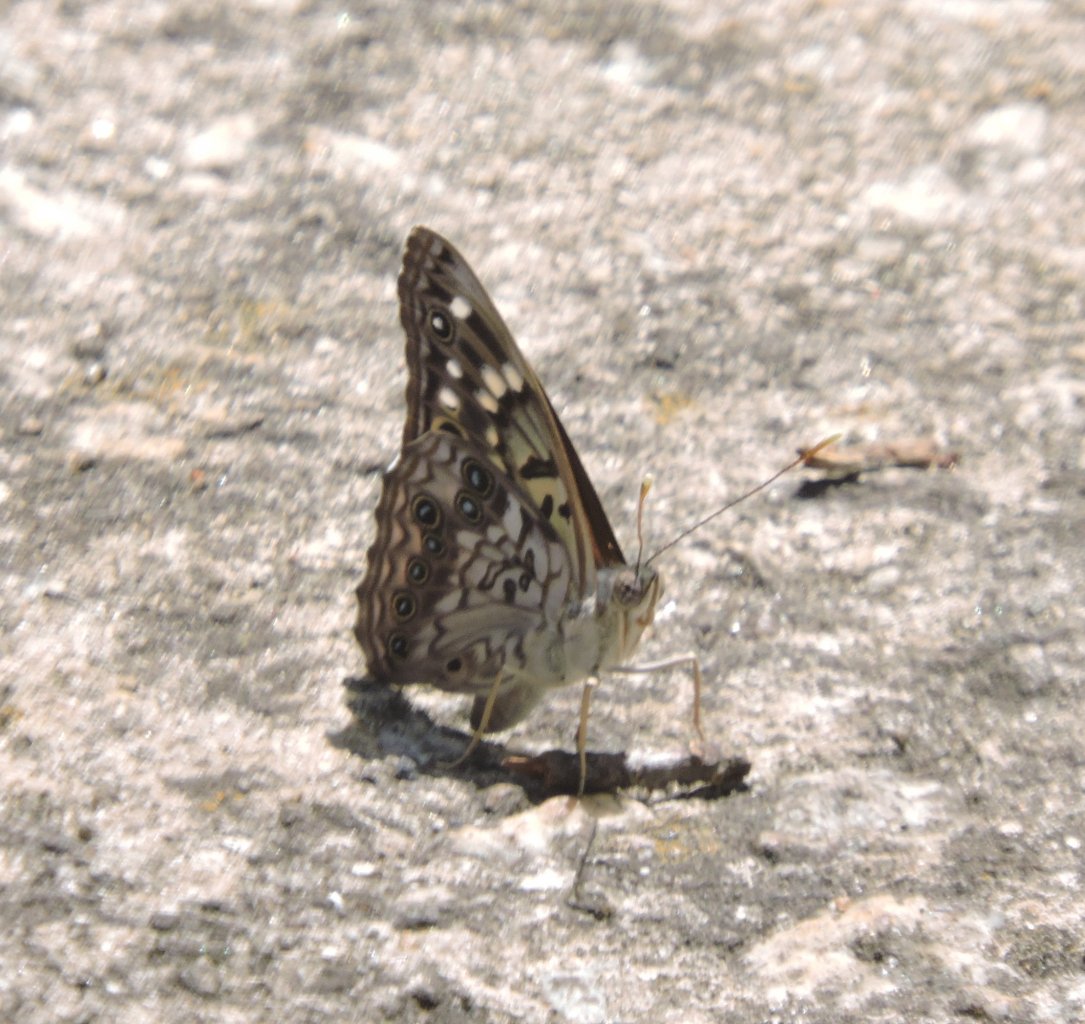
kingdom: Animalia
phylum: Arthropoda
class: Insecta
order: Lepidoptera
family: Nymphalidae
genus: Asterocampa
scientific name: Asterocampa celtis
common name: Hackberry Emperor
